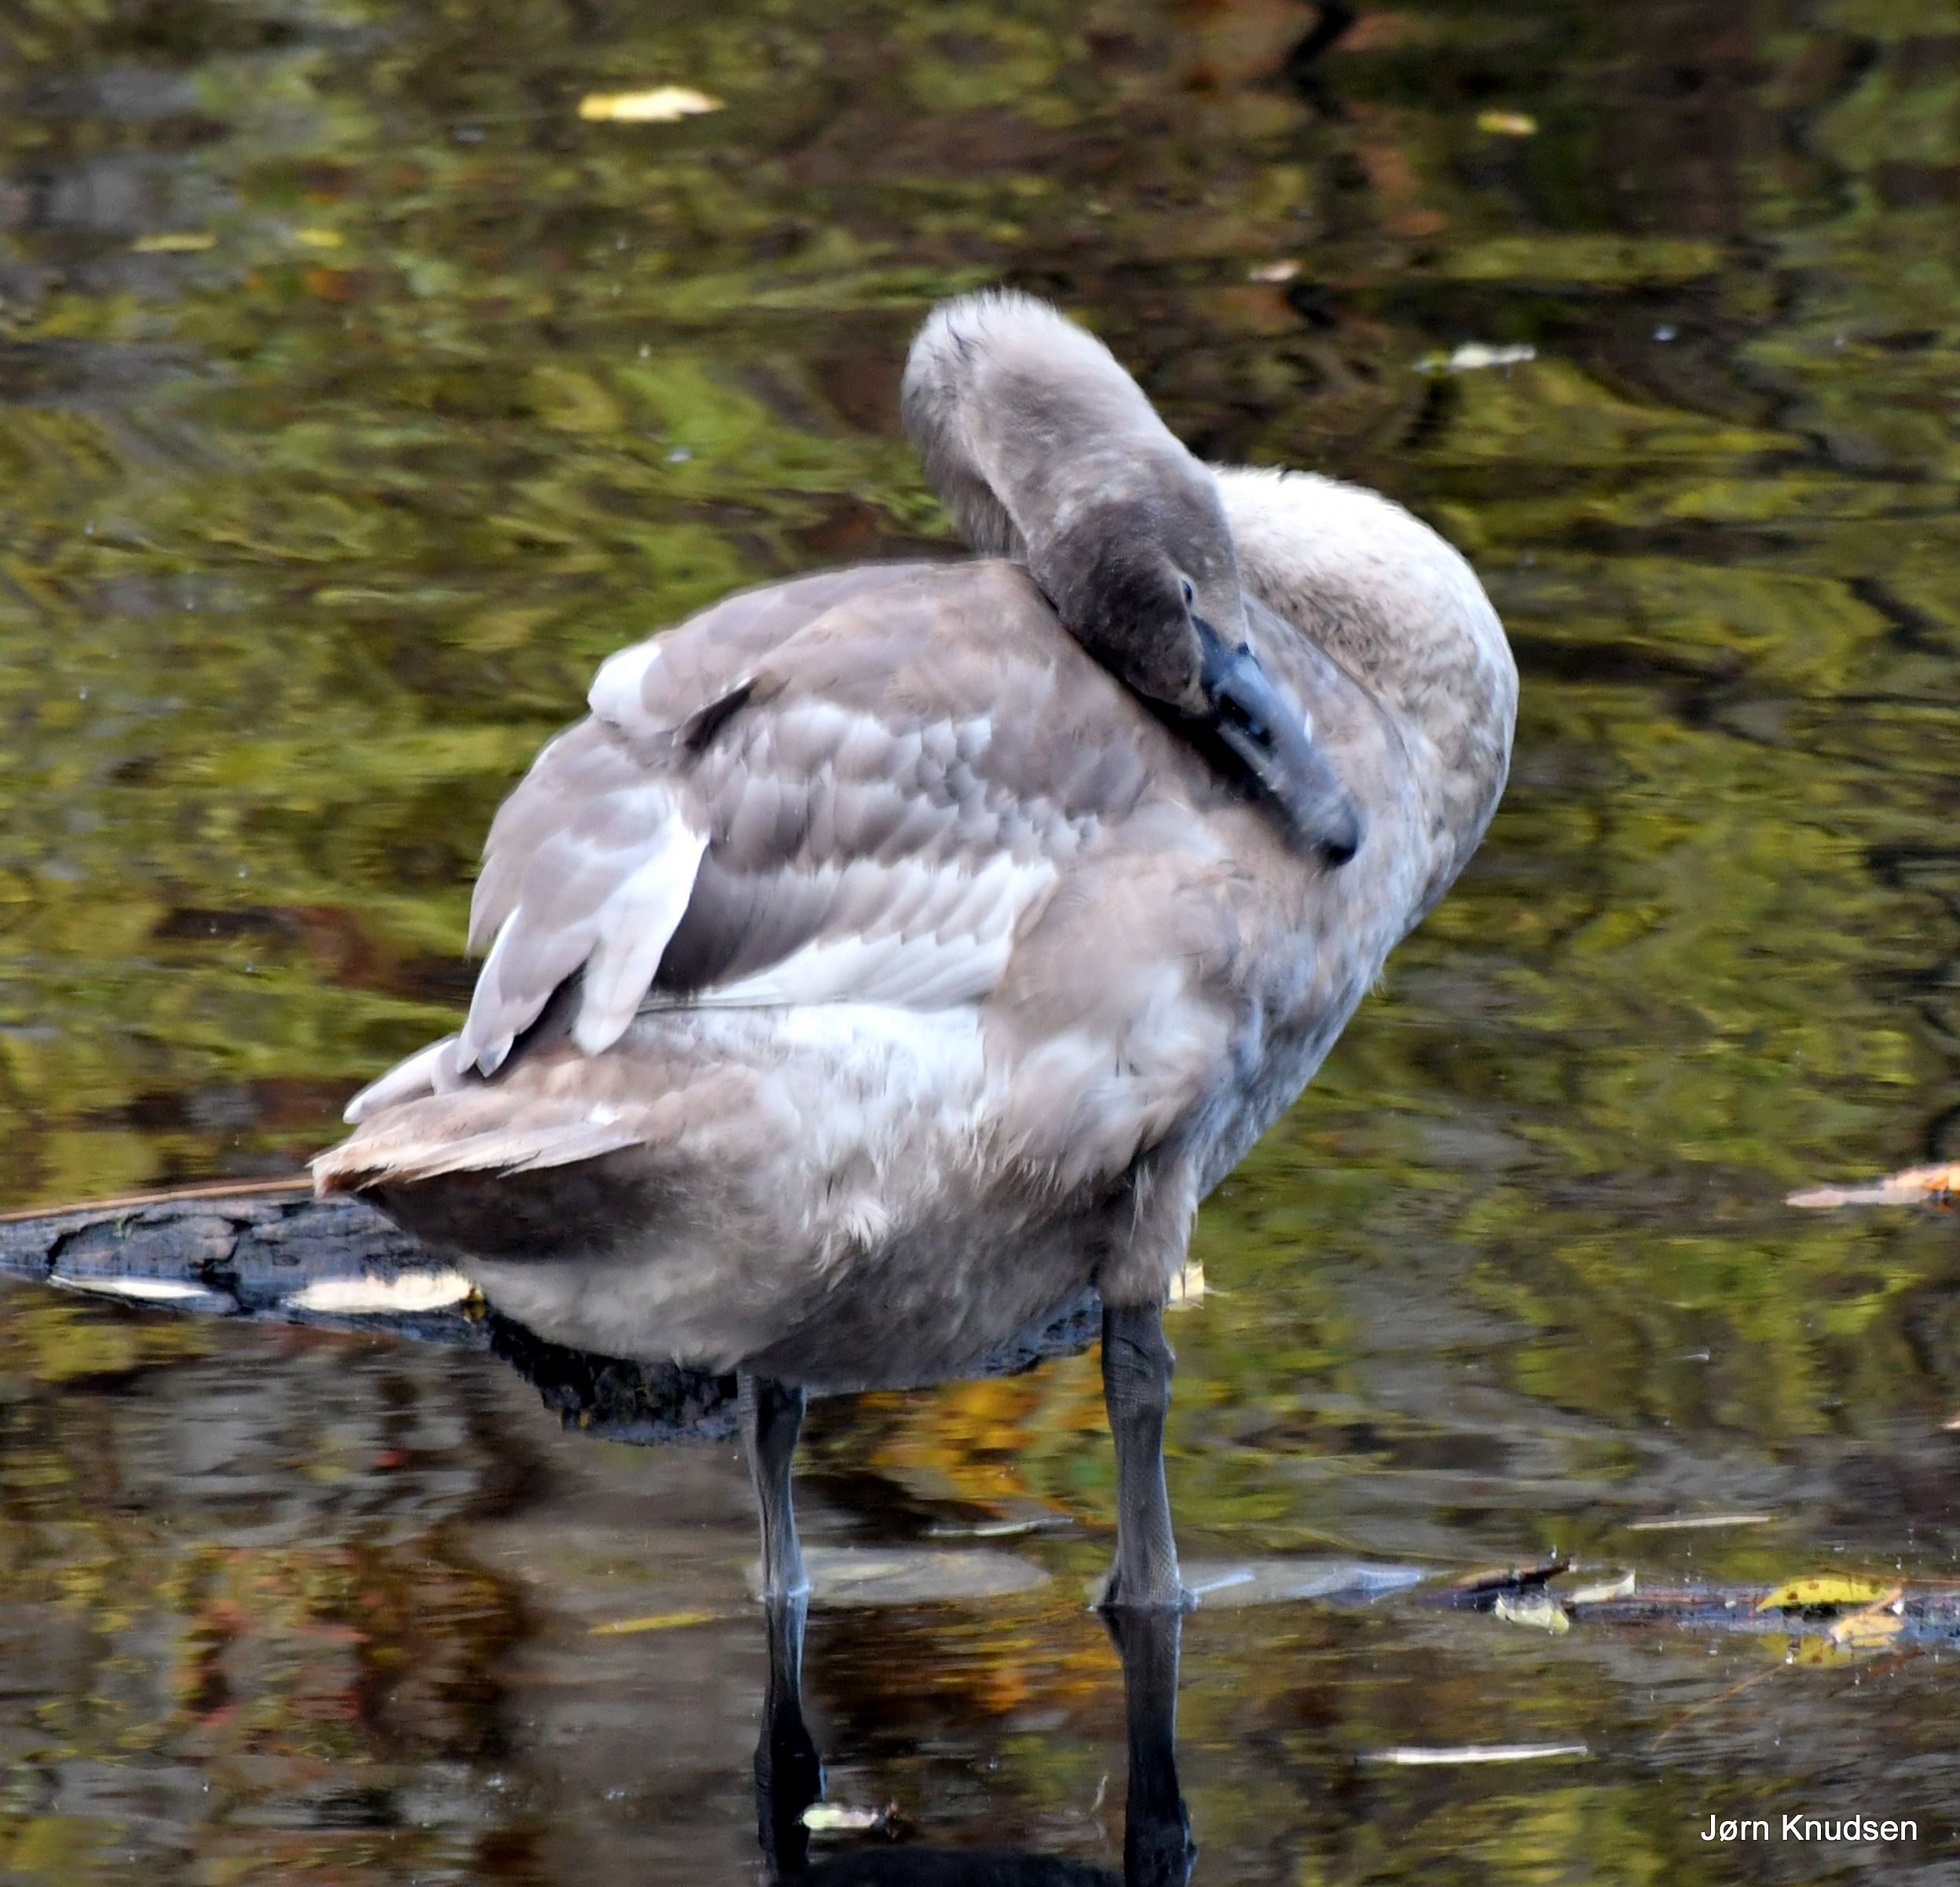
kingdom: Animalia
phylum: Chordata
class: Aves
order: Anseriformes
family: Anatidae
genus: Cygnus
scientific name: Cygnus olor
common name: Knopsvane
